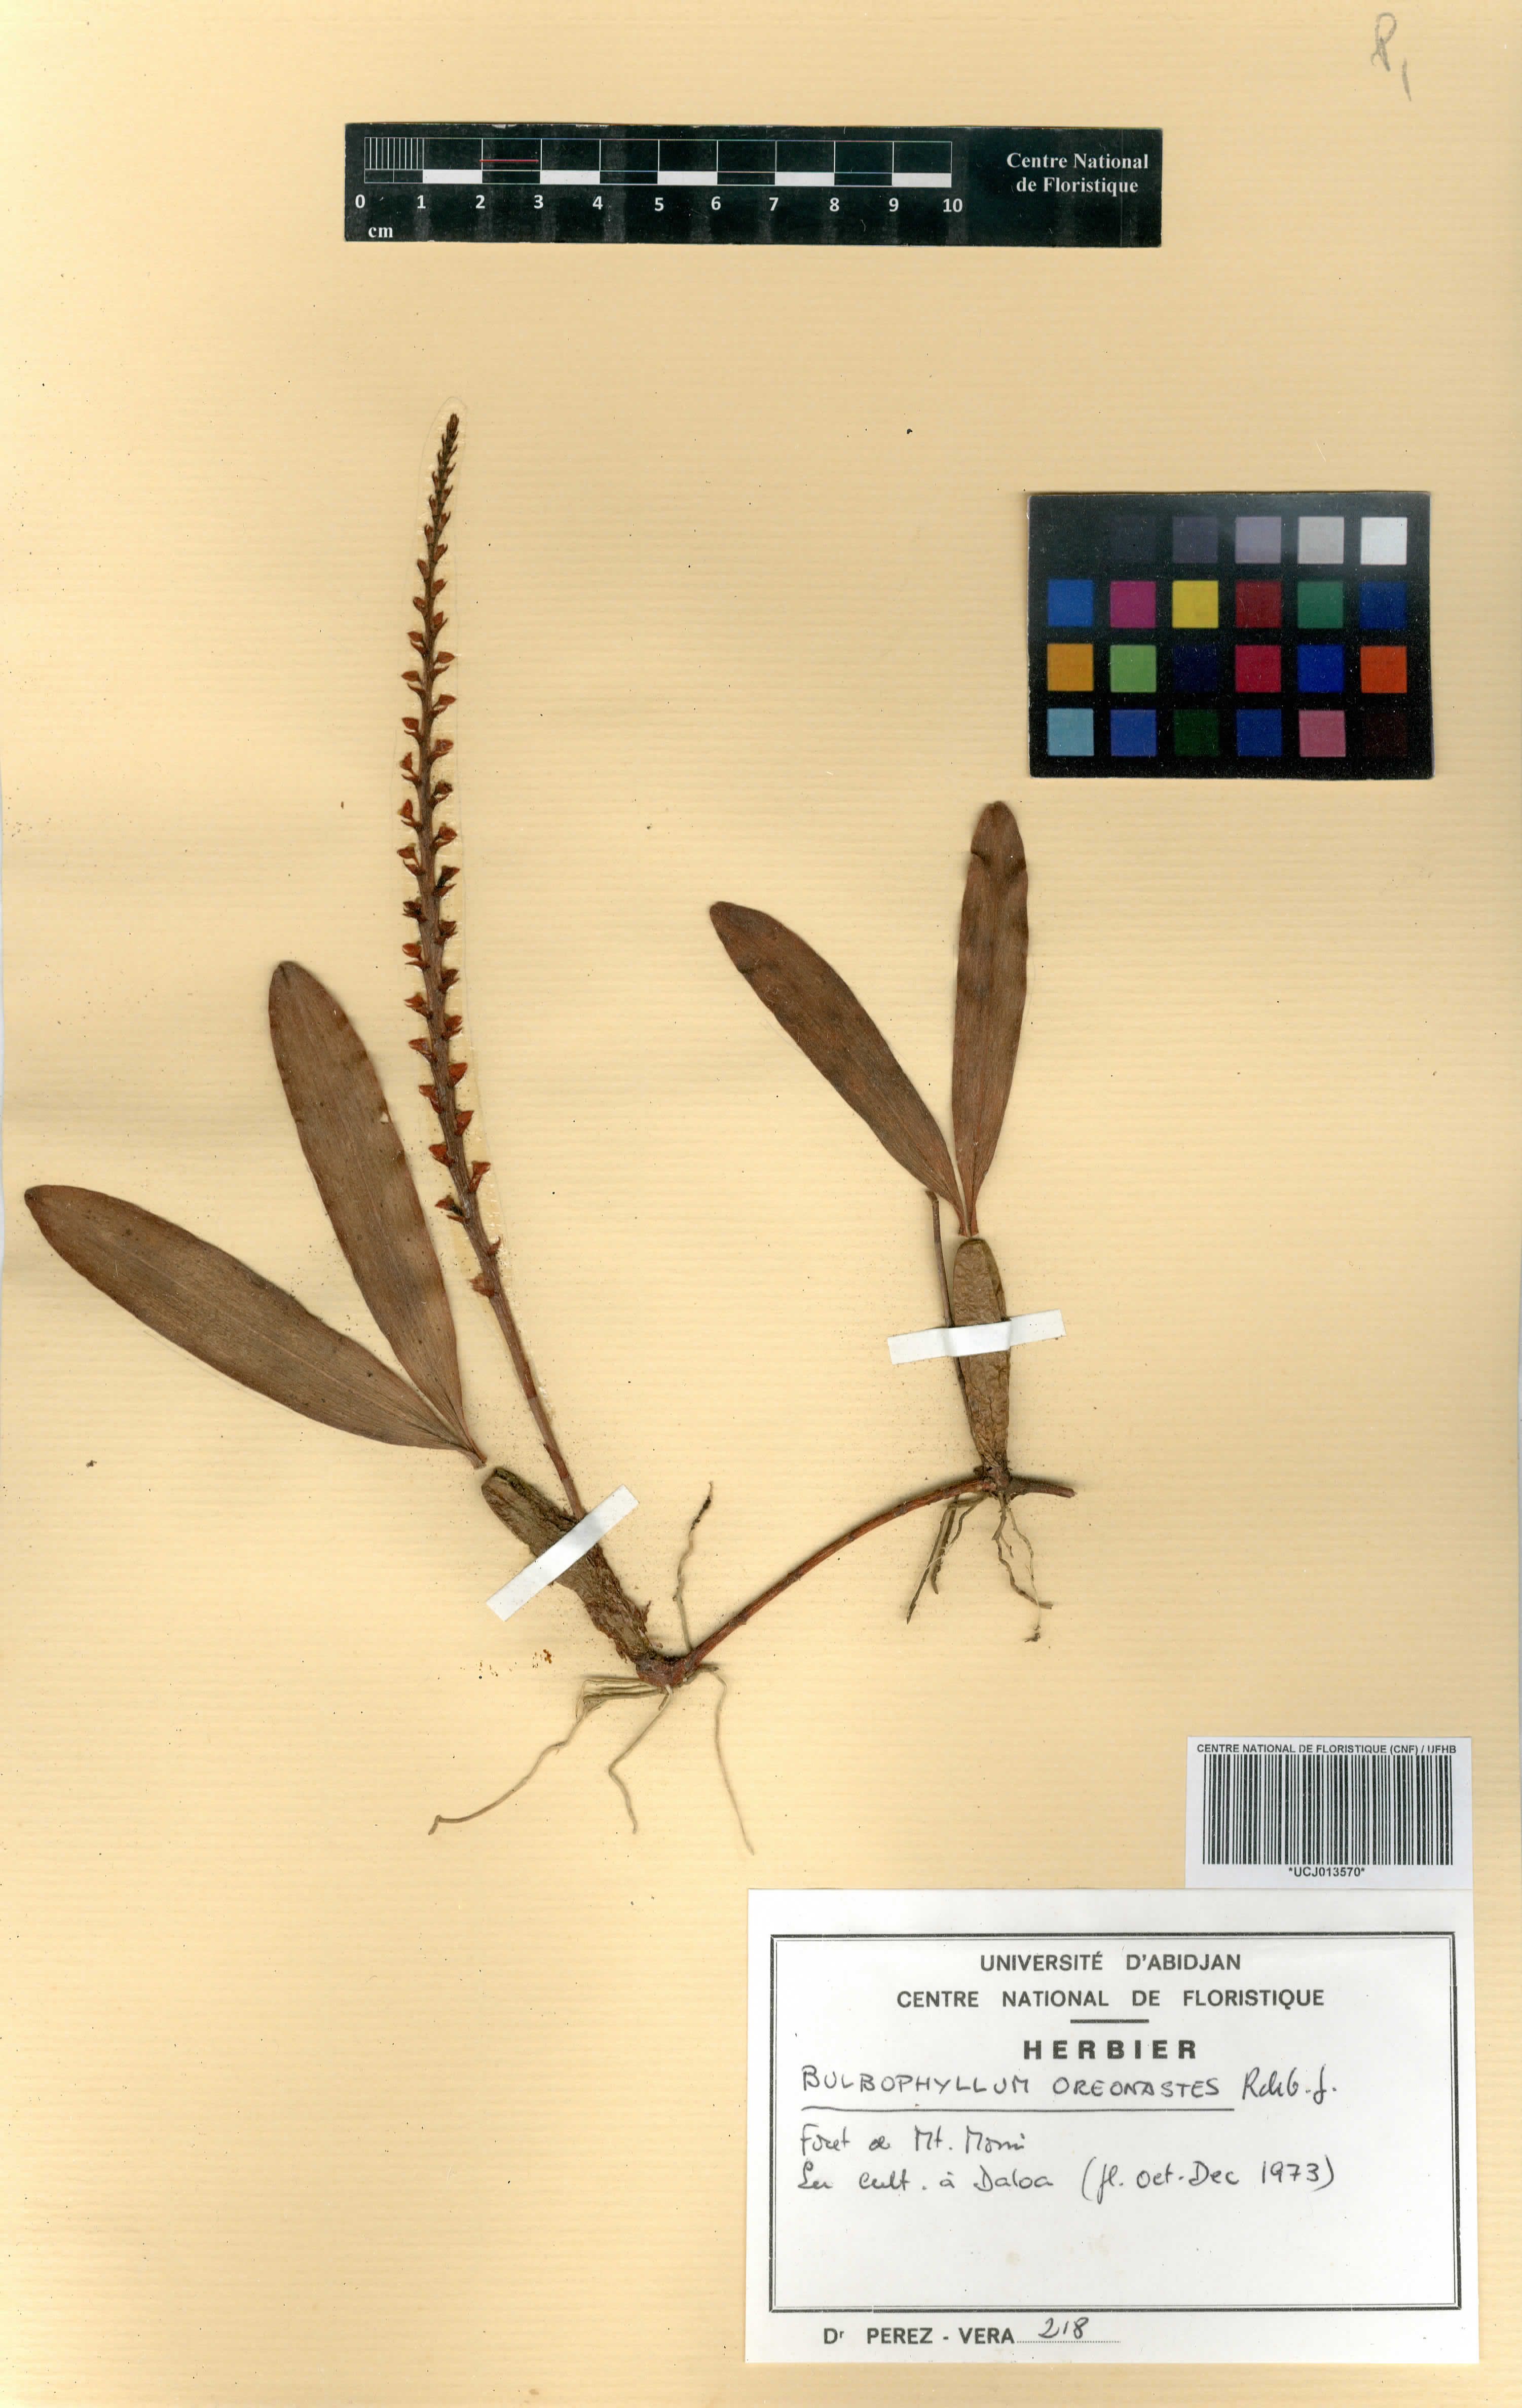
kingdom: Plantae
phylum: Tracheophyta
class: Liliopsida
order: Asparagales
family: Orchidaceae
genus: Bulbophyllum
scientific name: Bulbophyllum oreonastes
